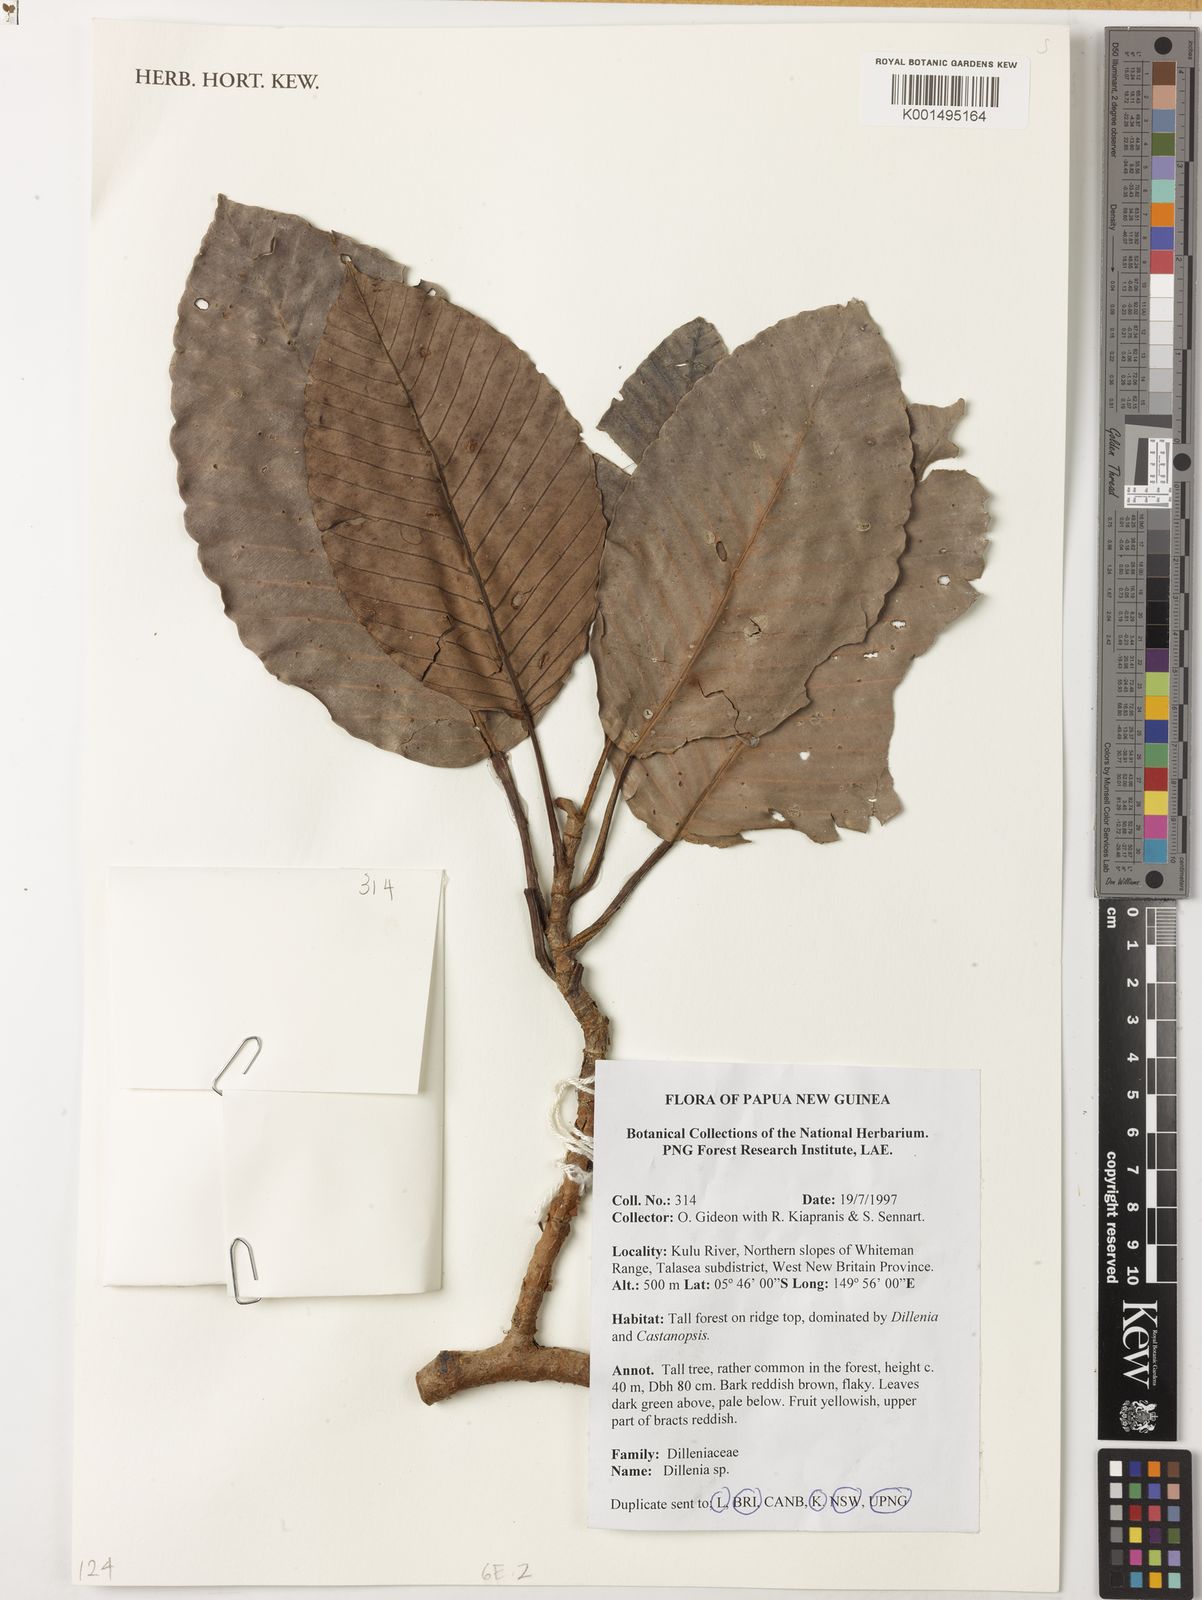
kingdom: Plantae
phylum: Tracheophyta
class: Magnoliopsida
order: Dilleniales
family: Dilleniaceae
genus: Dillenia
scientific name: Dillenia
